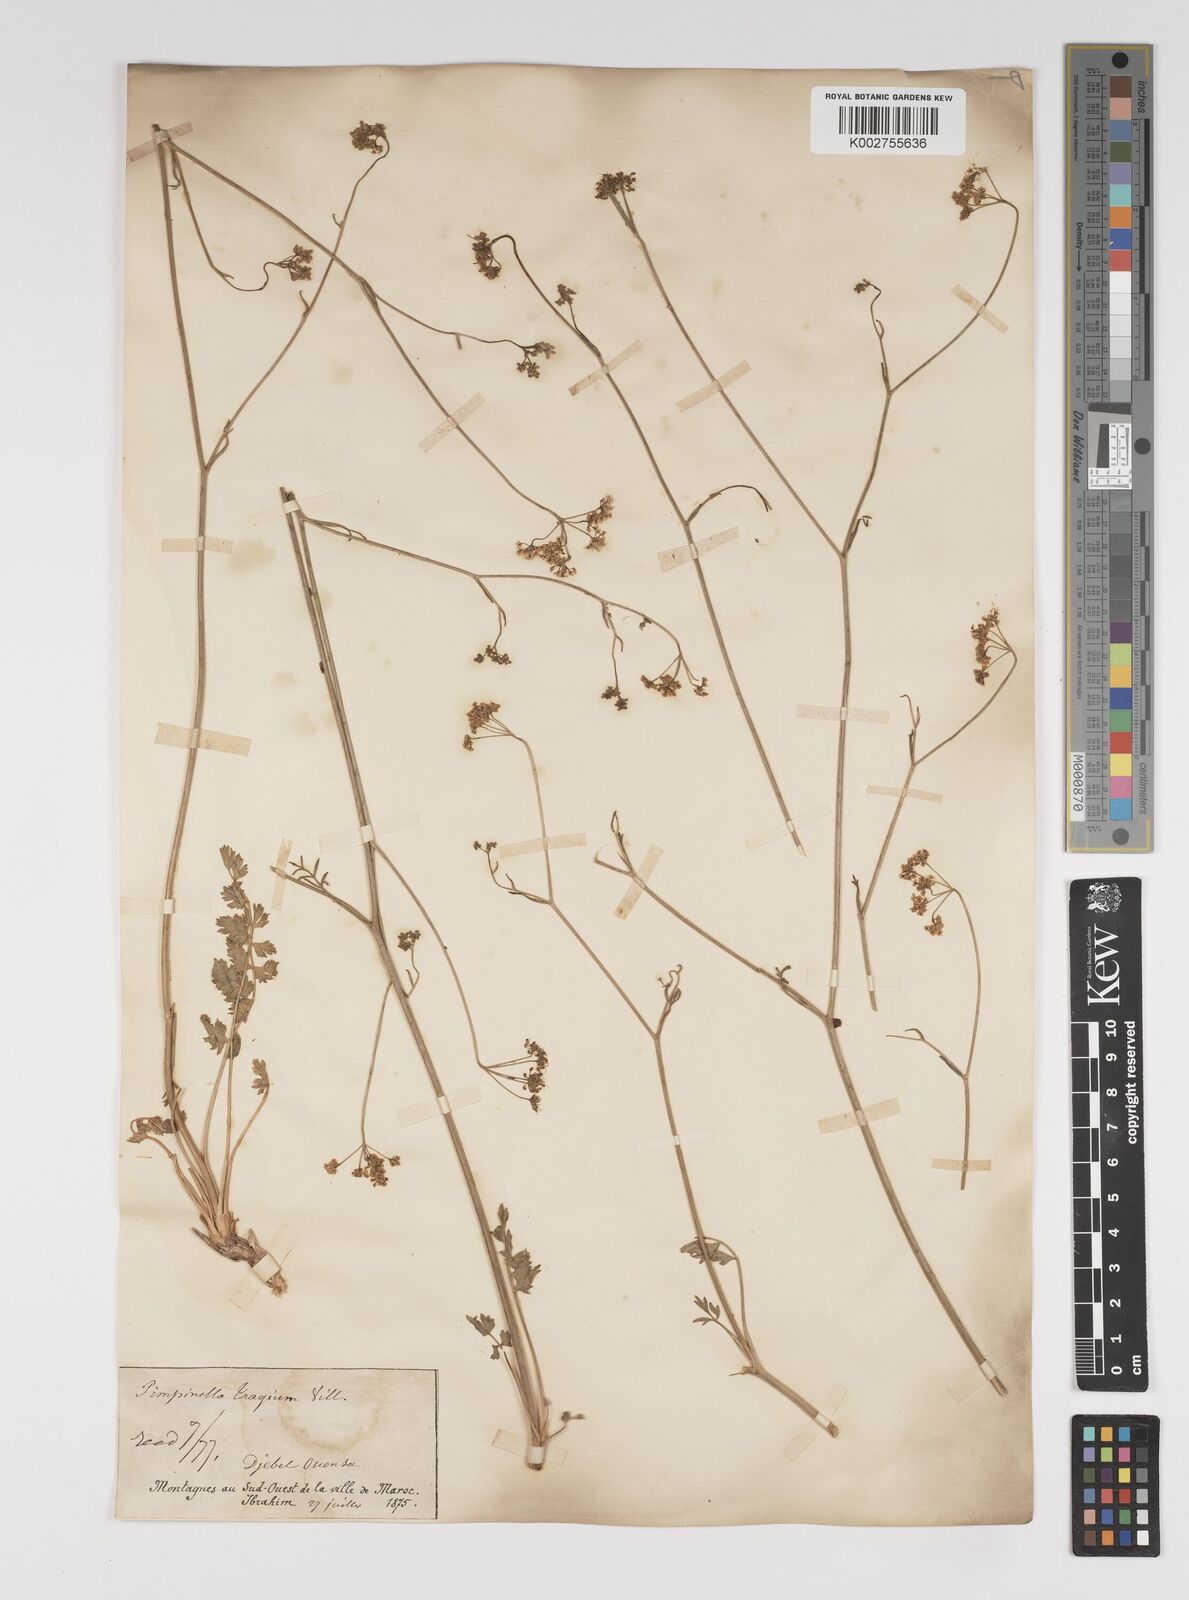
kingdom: Plantae
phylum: Tracheophyta
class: Magnoliopsida
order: Apiales
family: Apiaceae
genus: Pimpinella
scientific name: Pimpinella tragium
